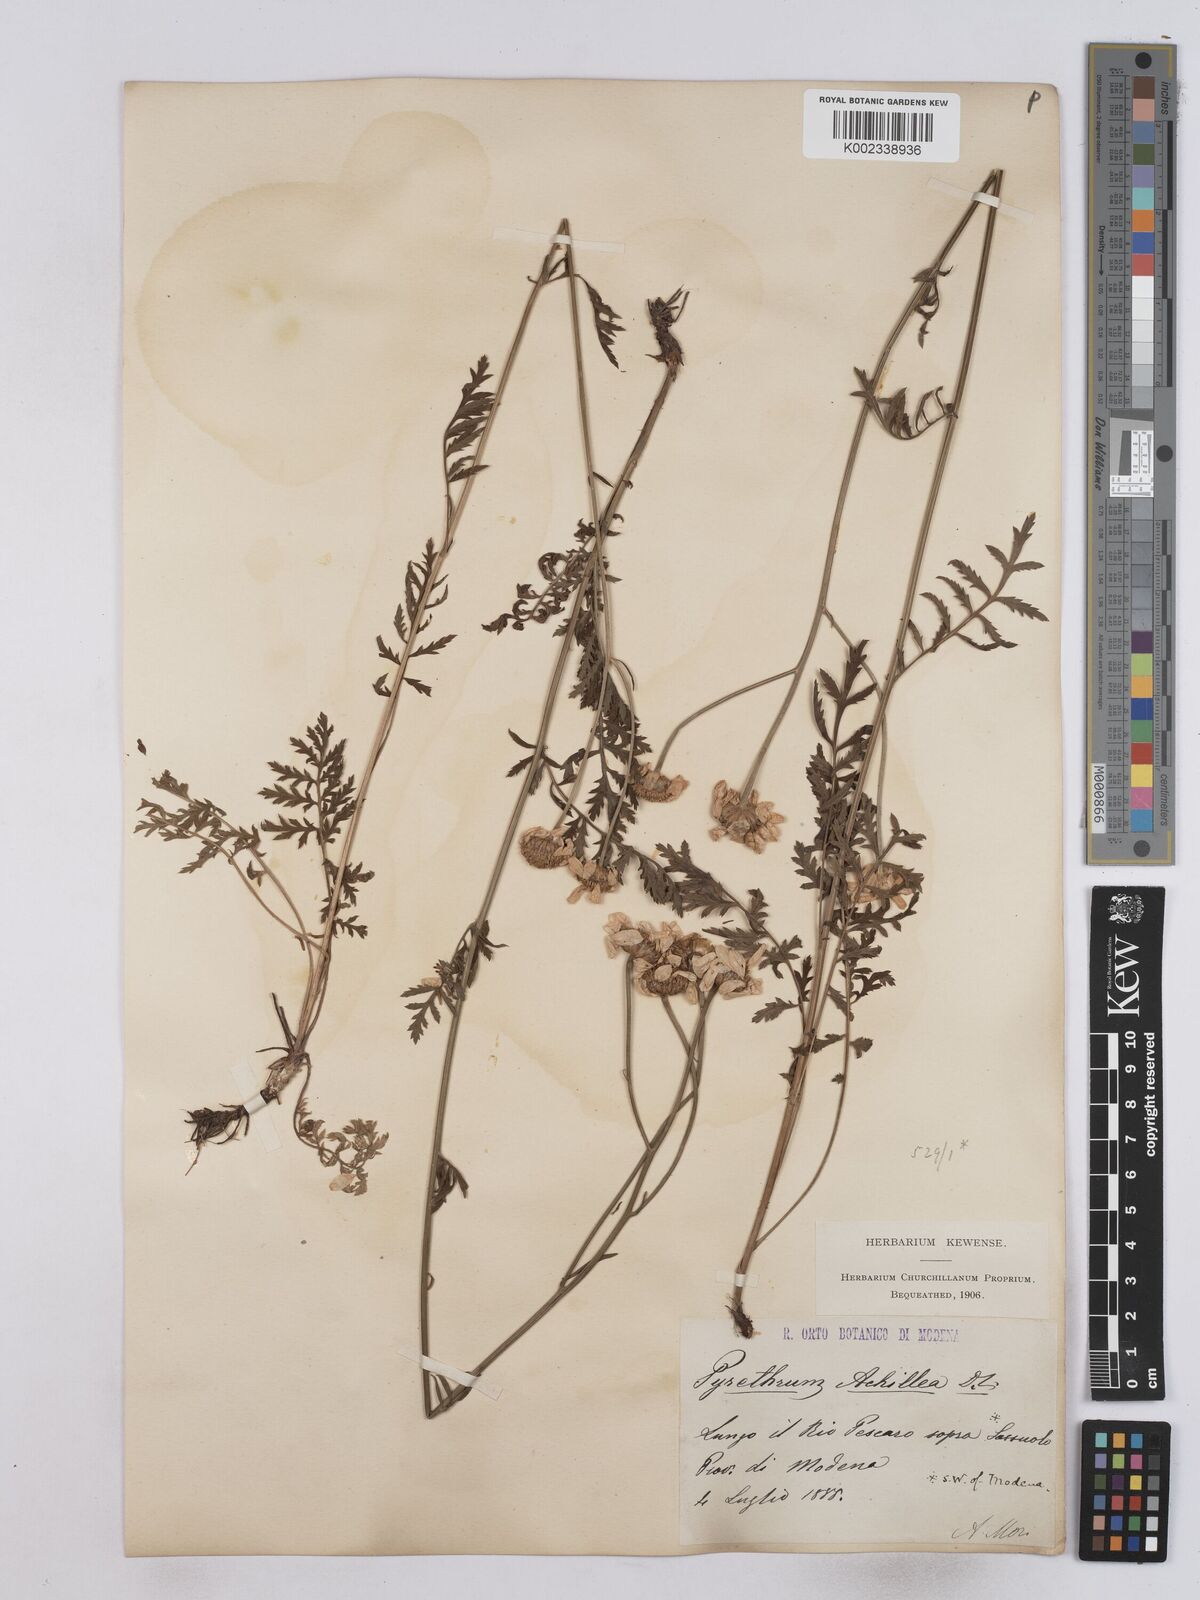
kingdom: Plantae
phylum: Tracheophyta
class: Magnoliopsida
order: Asterales
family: Asteraceae
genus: Tanacetum
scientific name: Tanacetum achilleae
